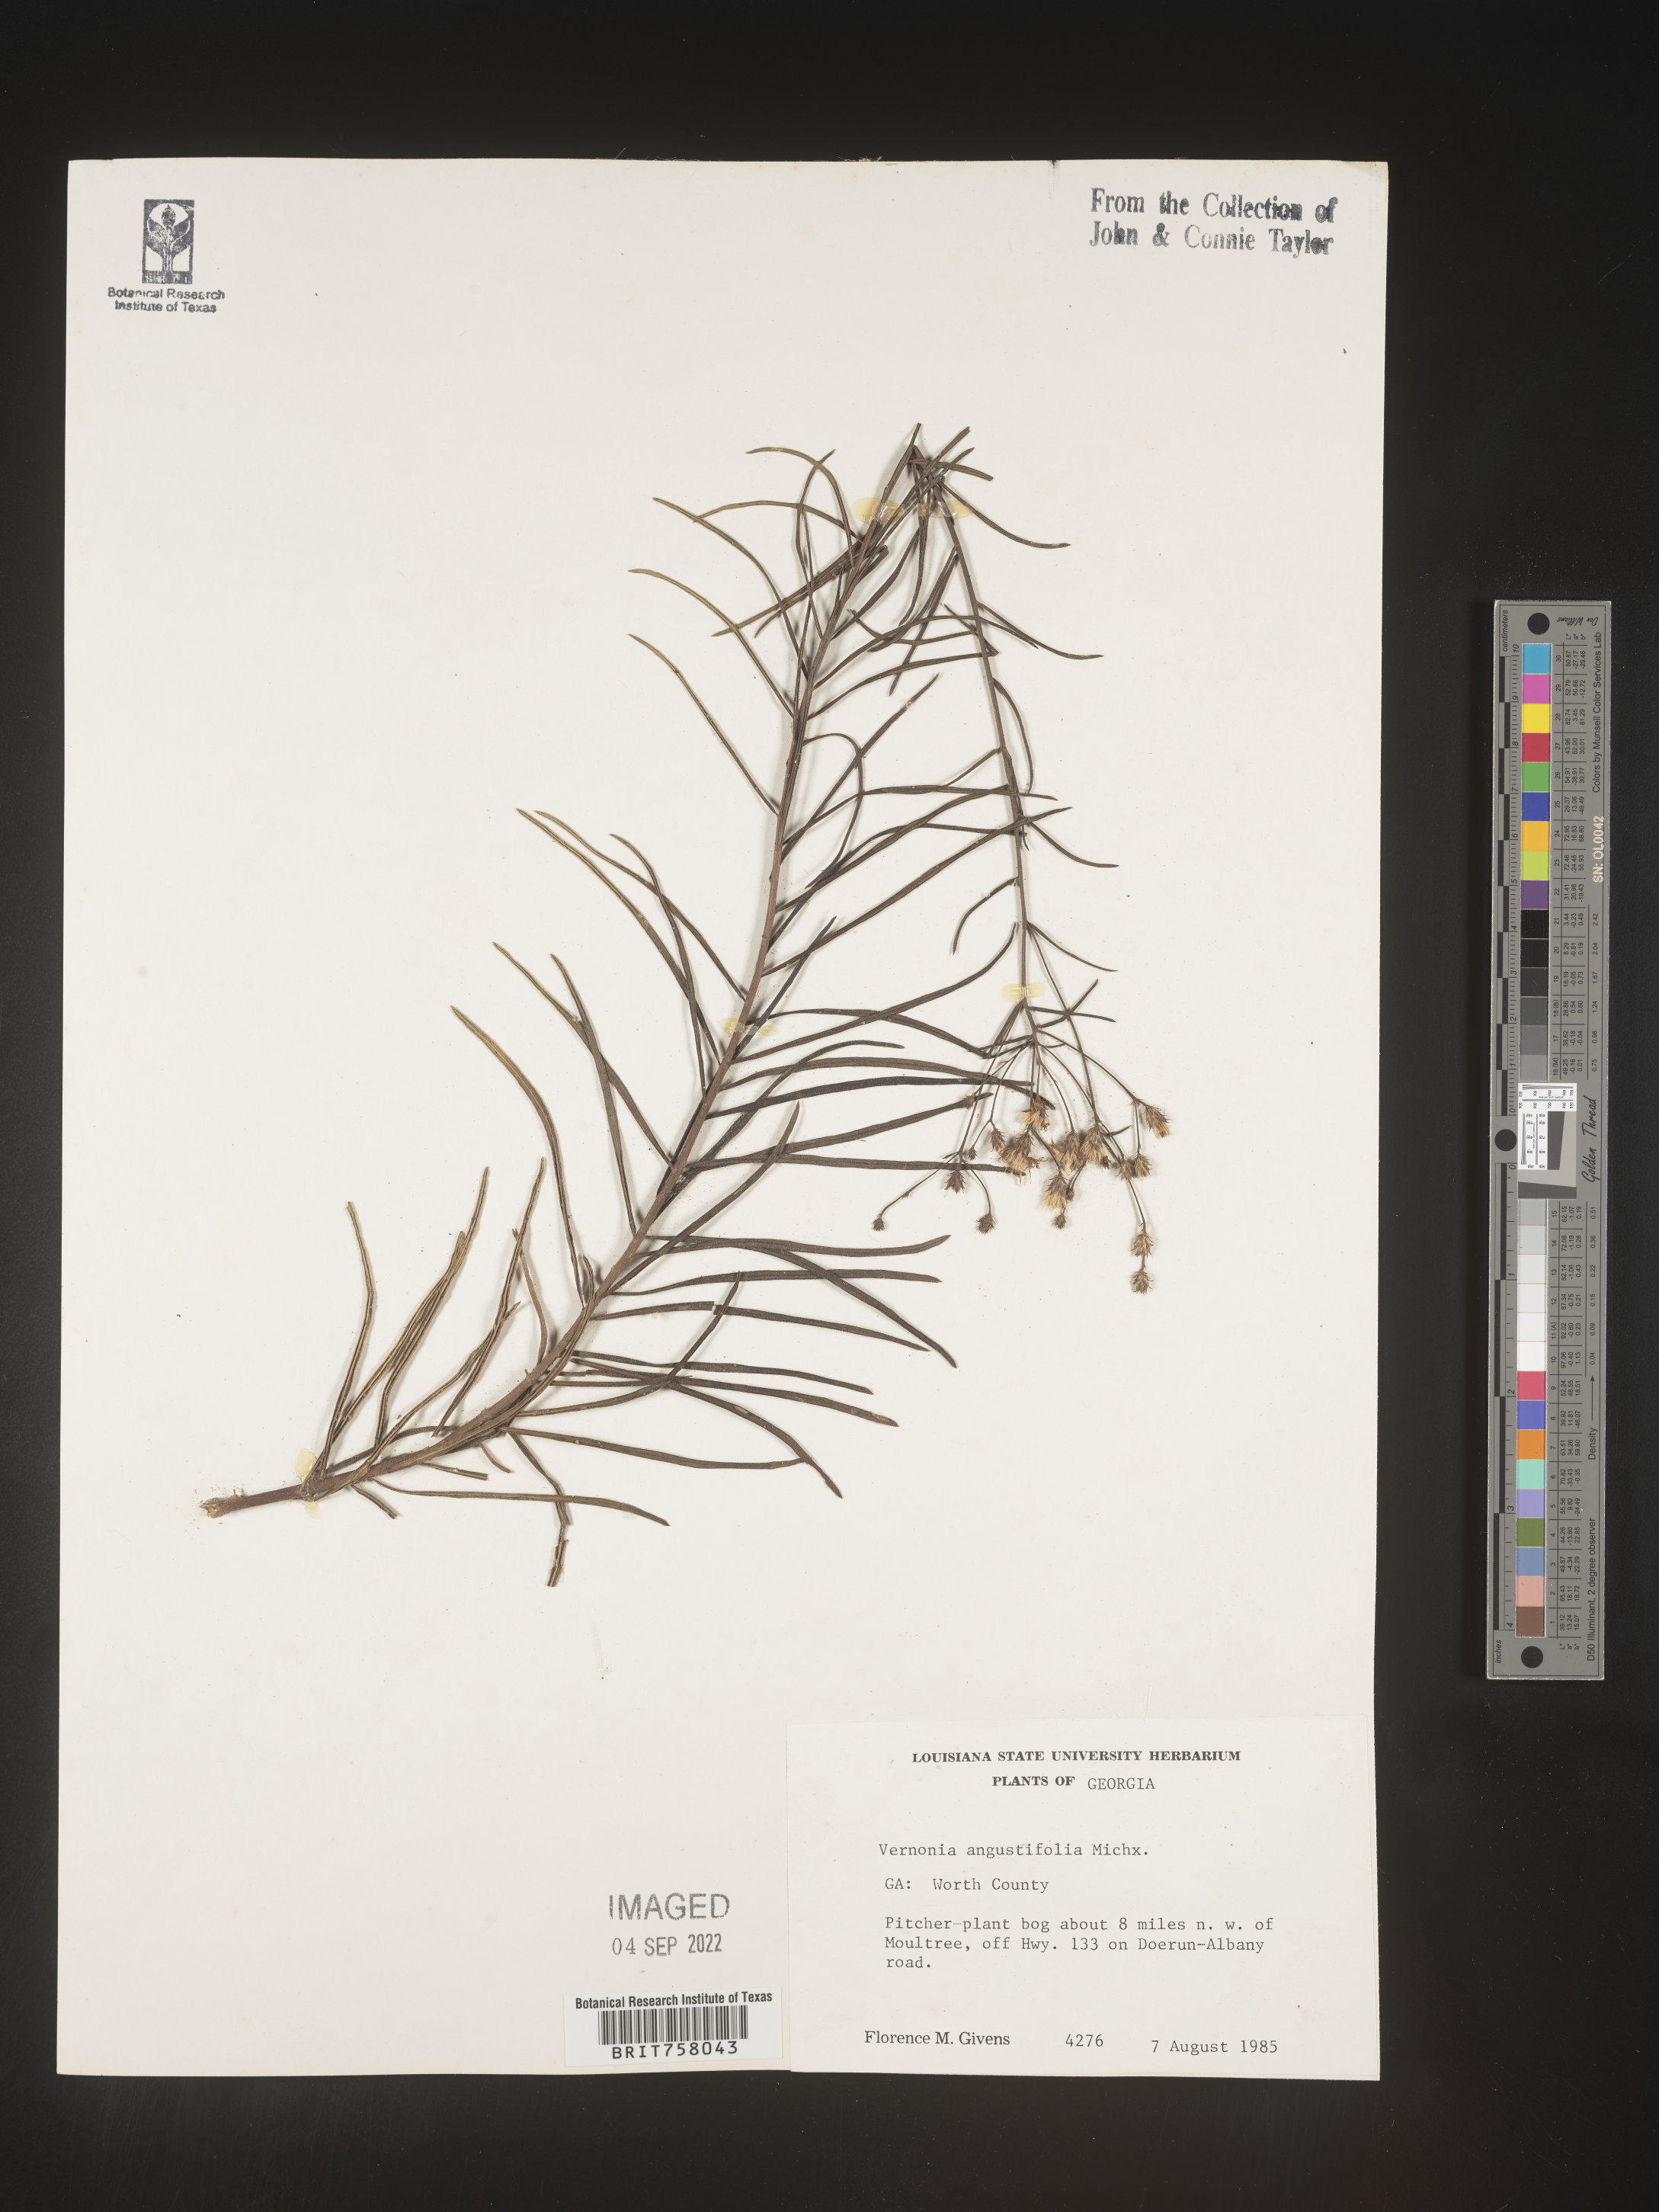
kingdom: Plantae
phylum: Tracheophyta
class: Magnoliopsida
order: Asterales
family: Asteraceae
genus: Vernonia
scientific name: Vernonia angustifolia
